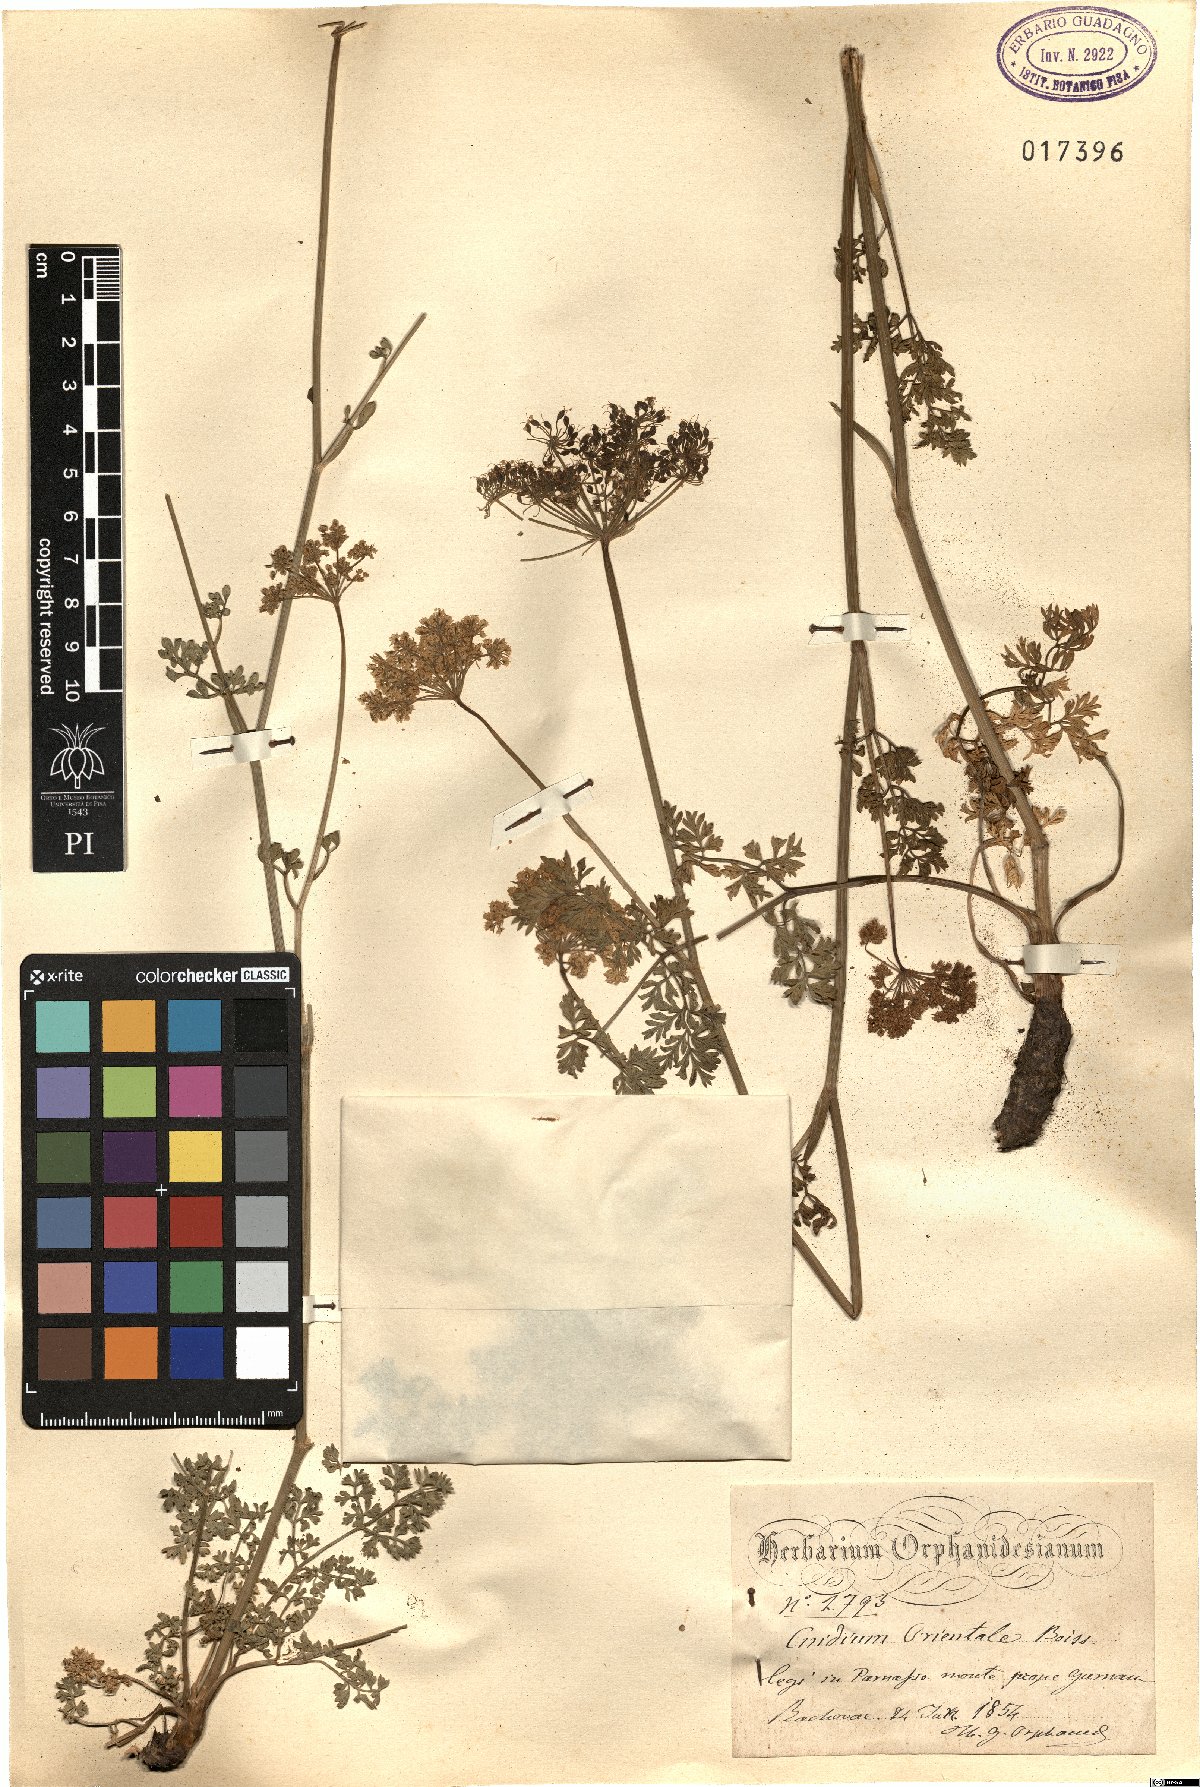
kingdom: Plantae
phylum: Tracheophyta
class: Magnoliopsida
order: Apiales
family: Apiaceae
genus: Katapsuxis
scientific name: Katapsuxis silaifolia
